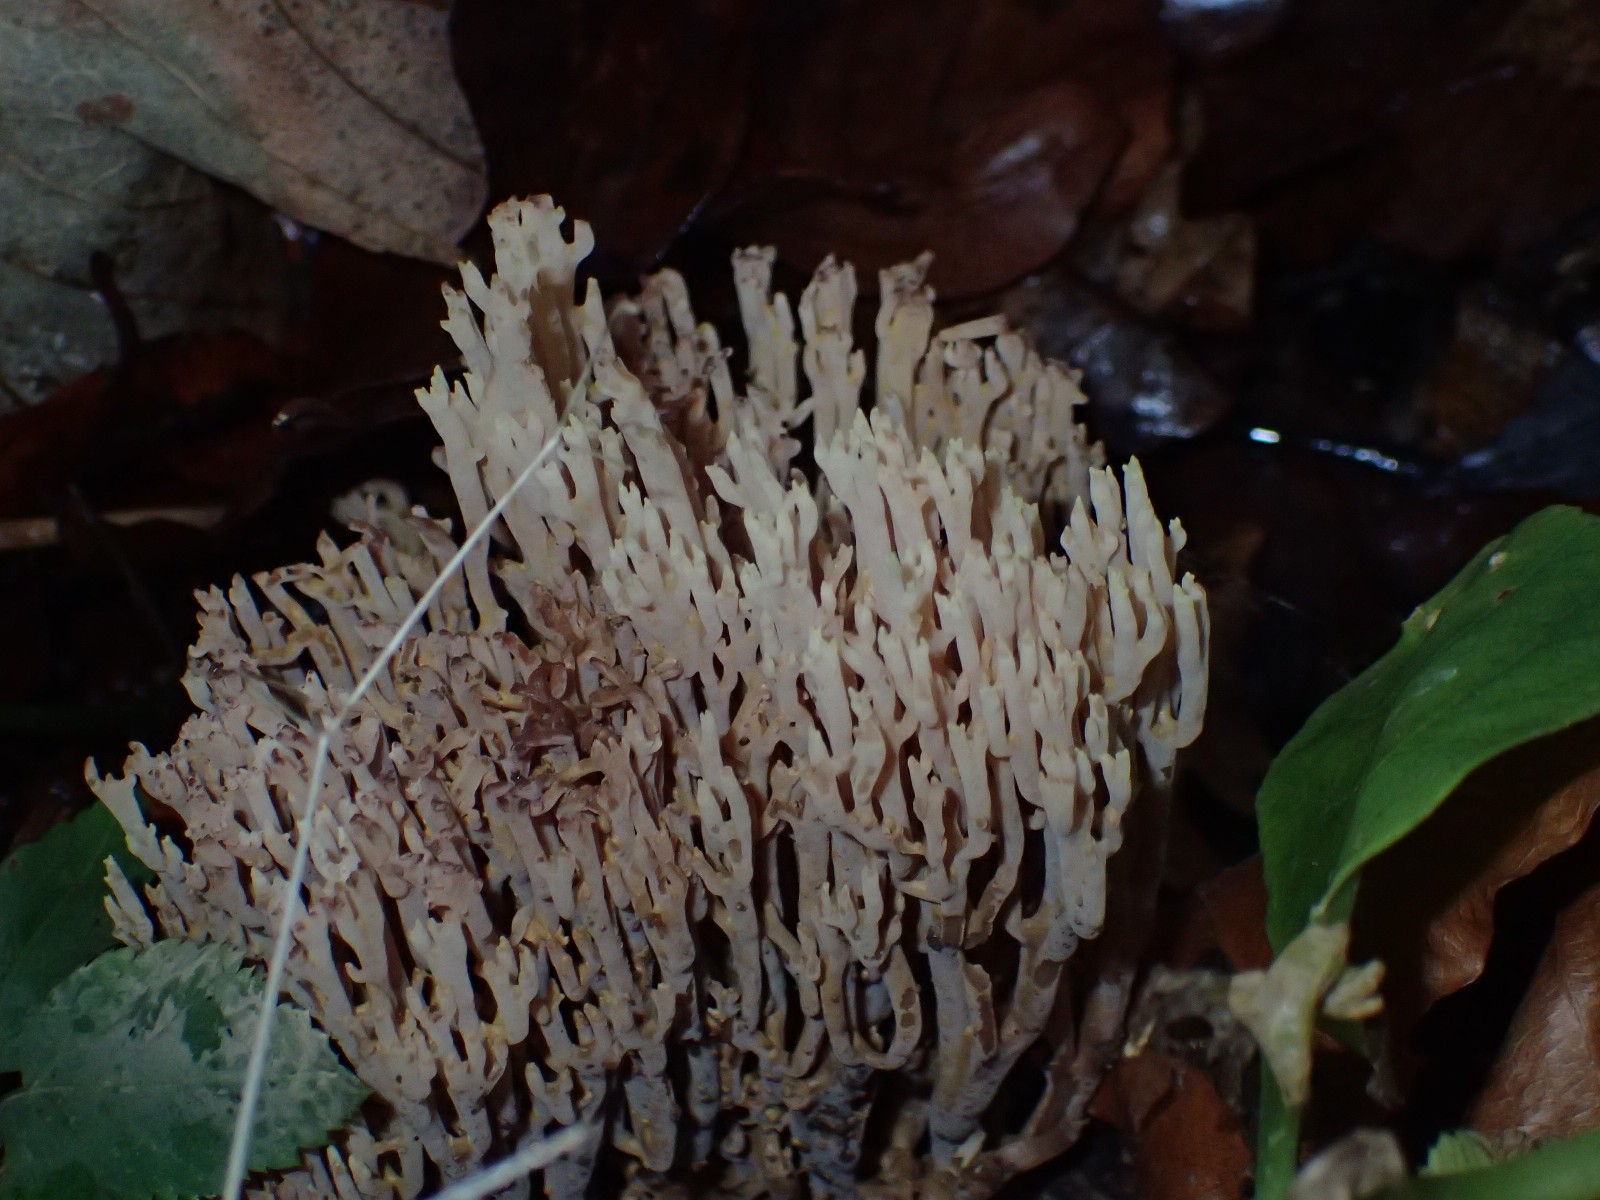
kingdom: Fungi
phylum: Basidiomycota
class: Agaricomycetes
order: Gomphales
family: Gomphaceae
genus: Ramaria
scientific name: Ramaria stricta
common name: rank koralsvamp
